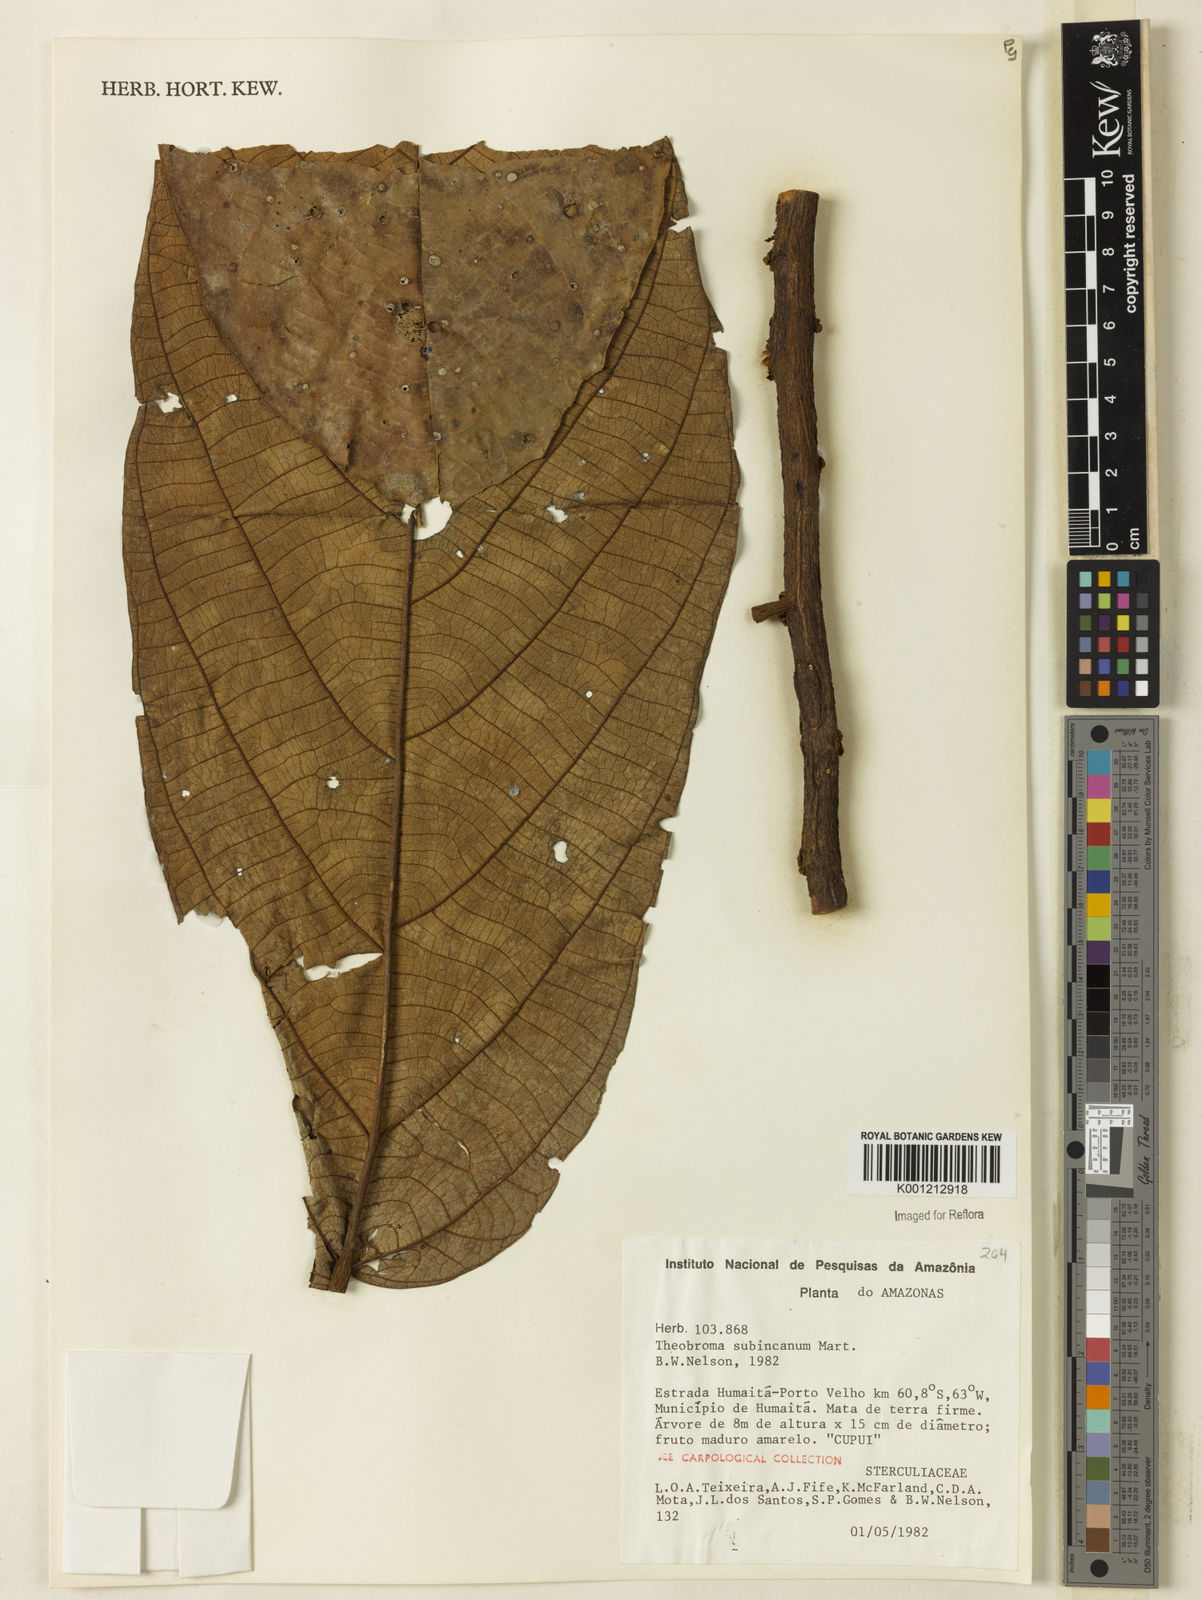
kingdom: Plantae
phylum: Tracheophyta
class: Magnoliopsida
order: Malvales
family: Malvaceae
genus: Theobroma
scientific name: Theobroma subincanum
